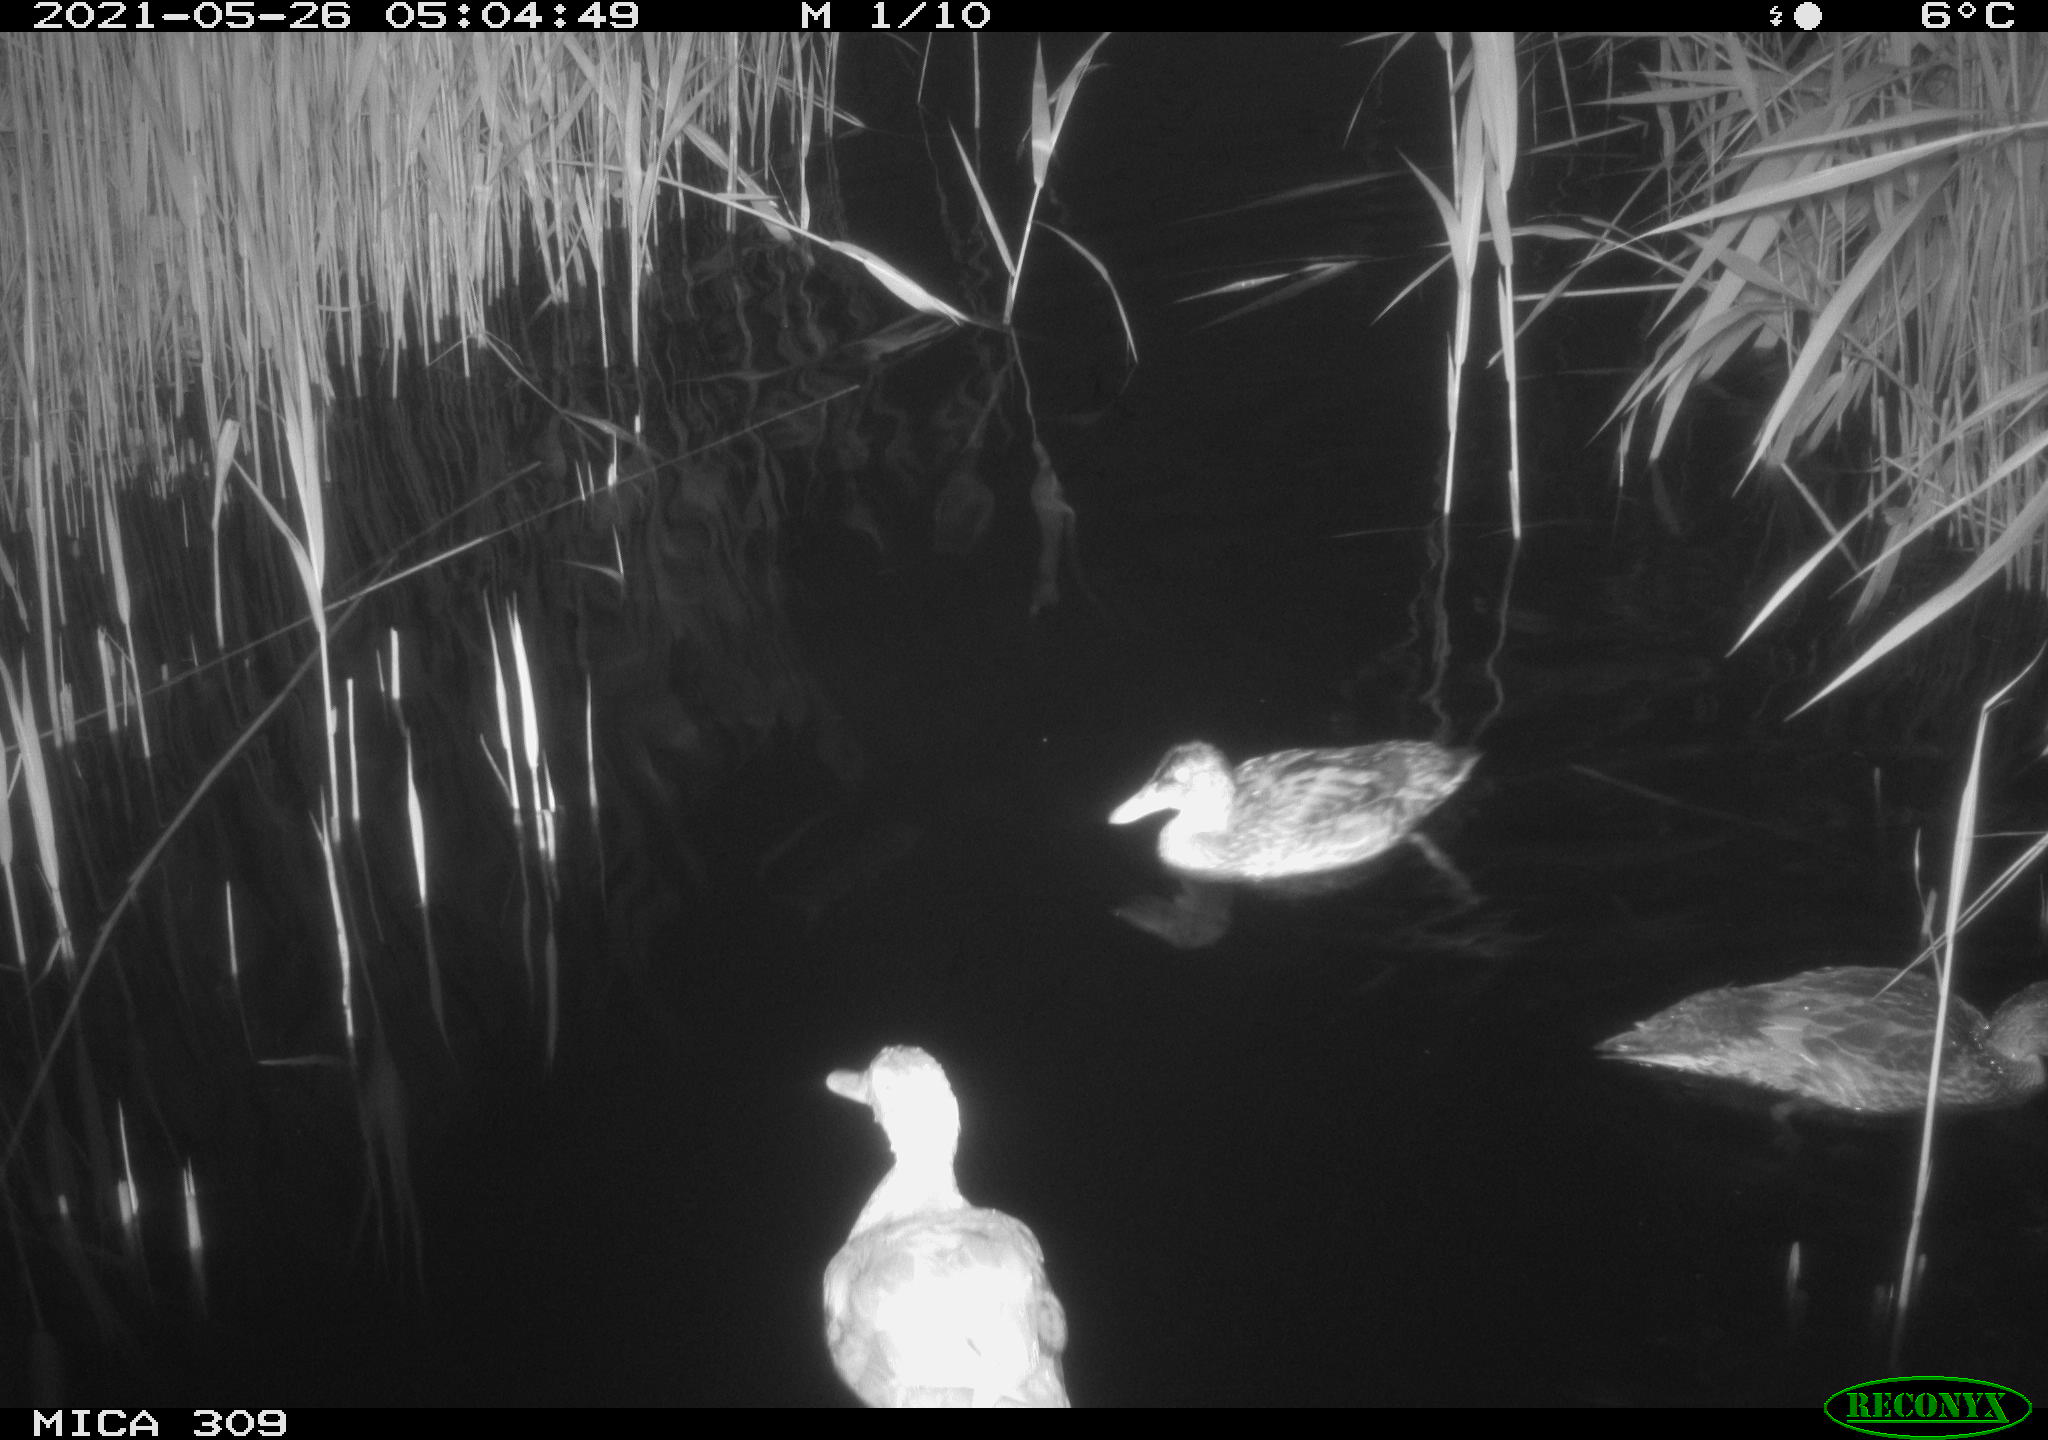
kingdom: Animalia
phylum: Chordata
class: Aves
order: Anseriformes
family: Anatidae
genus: Mareca
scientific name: Mareca strepera
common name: Gadwall
